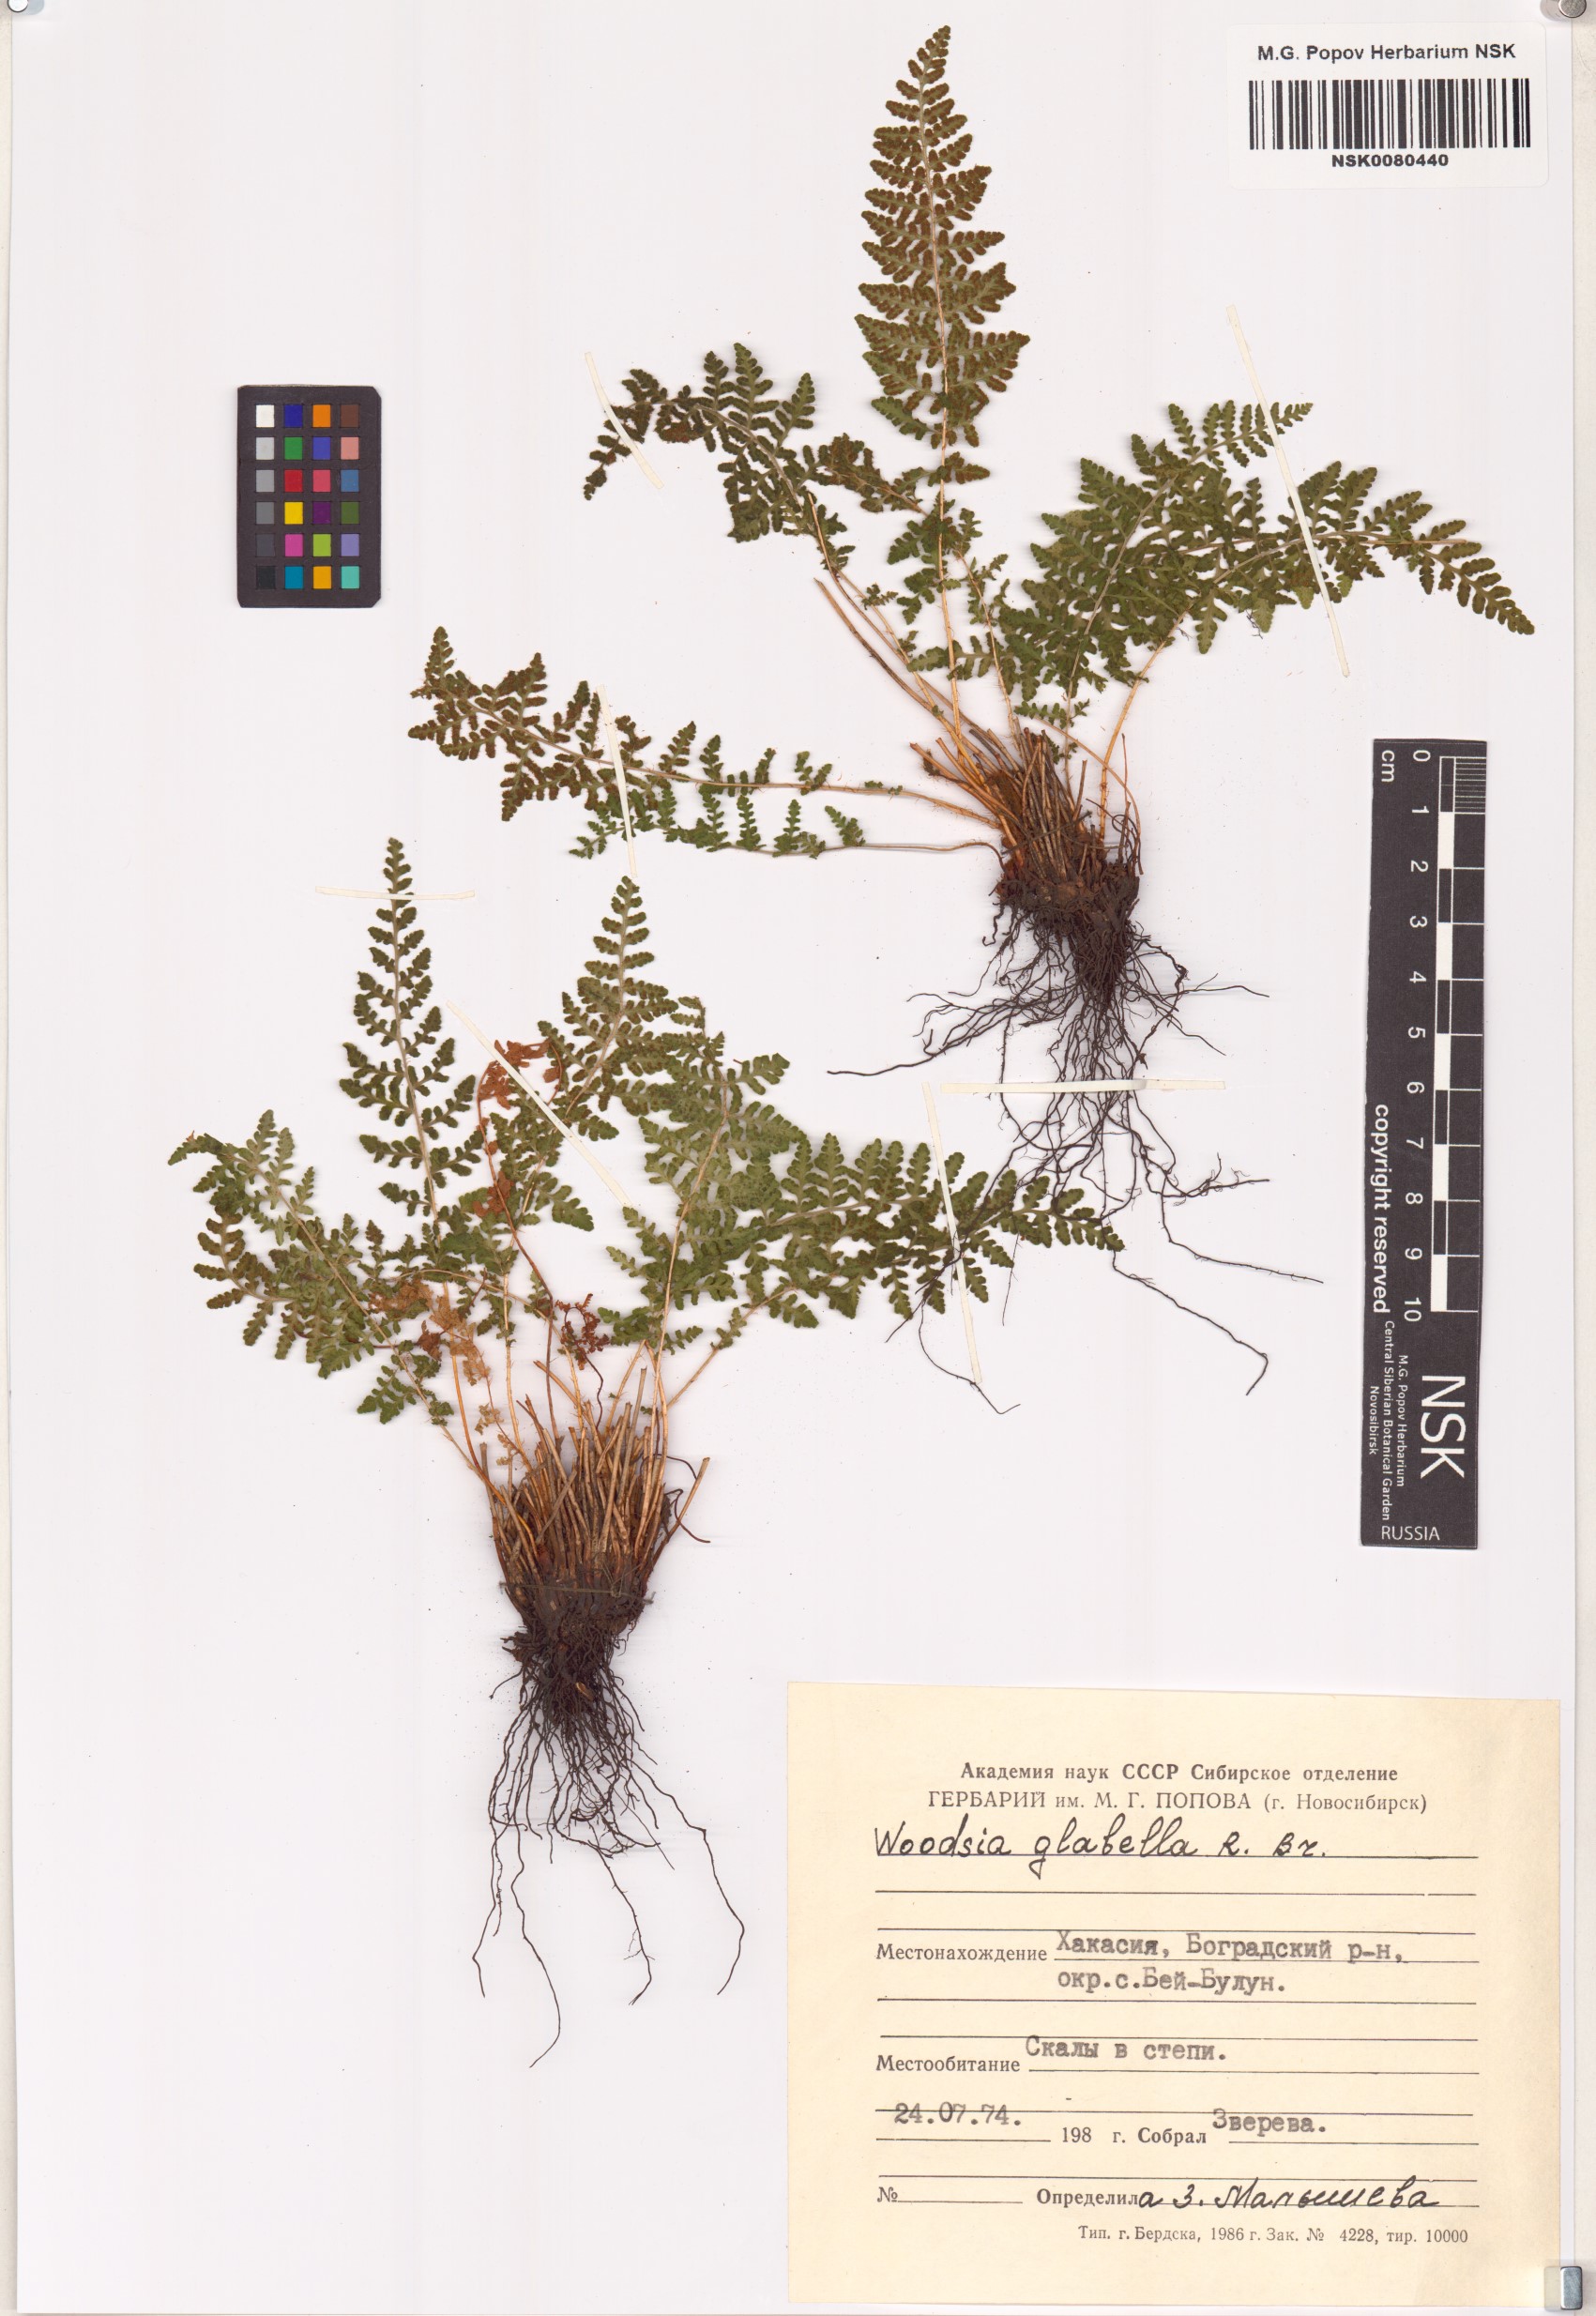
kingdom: Plantae
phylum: Tracheophyta
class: Polypodiopsida
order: Polypodiales
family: Woodsiaceae
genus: Woodsia
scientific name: Woodsia glabella
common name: Smooth woodsia
